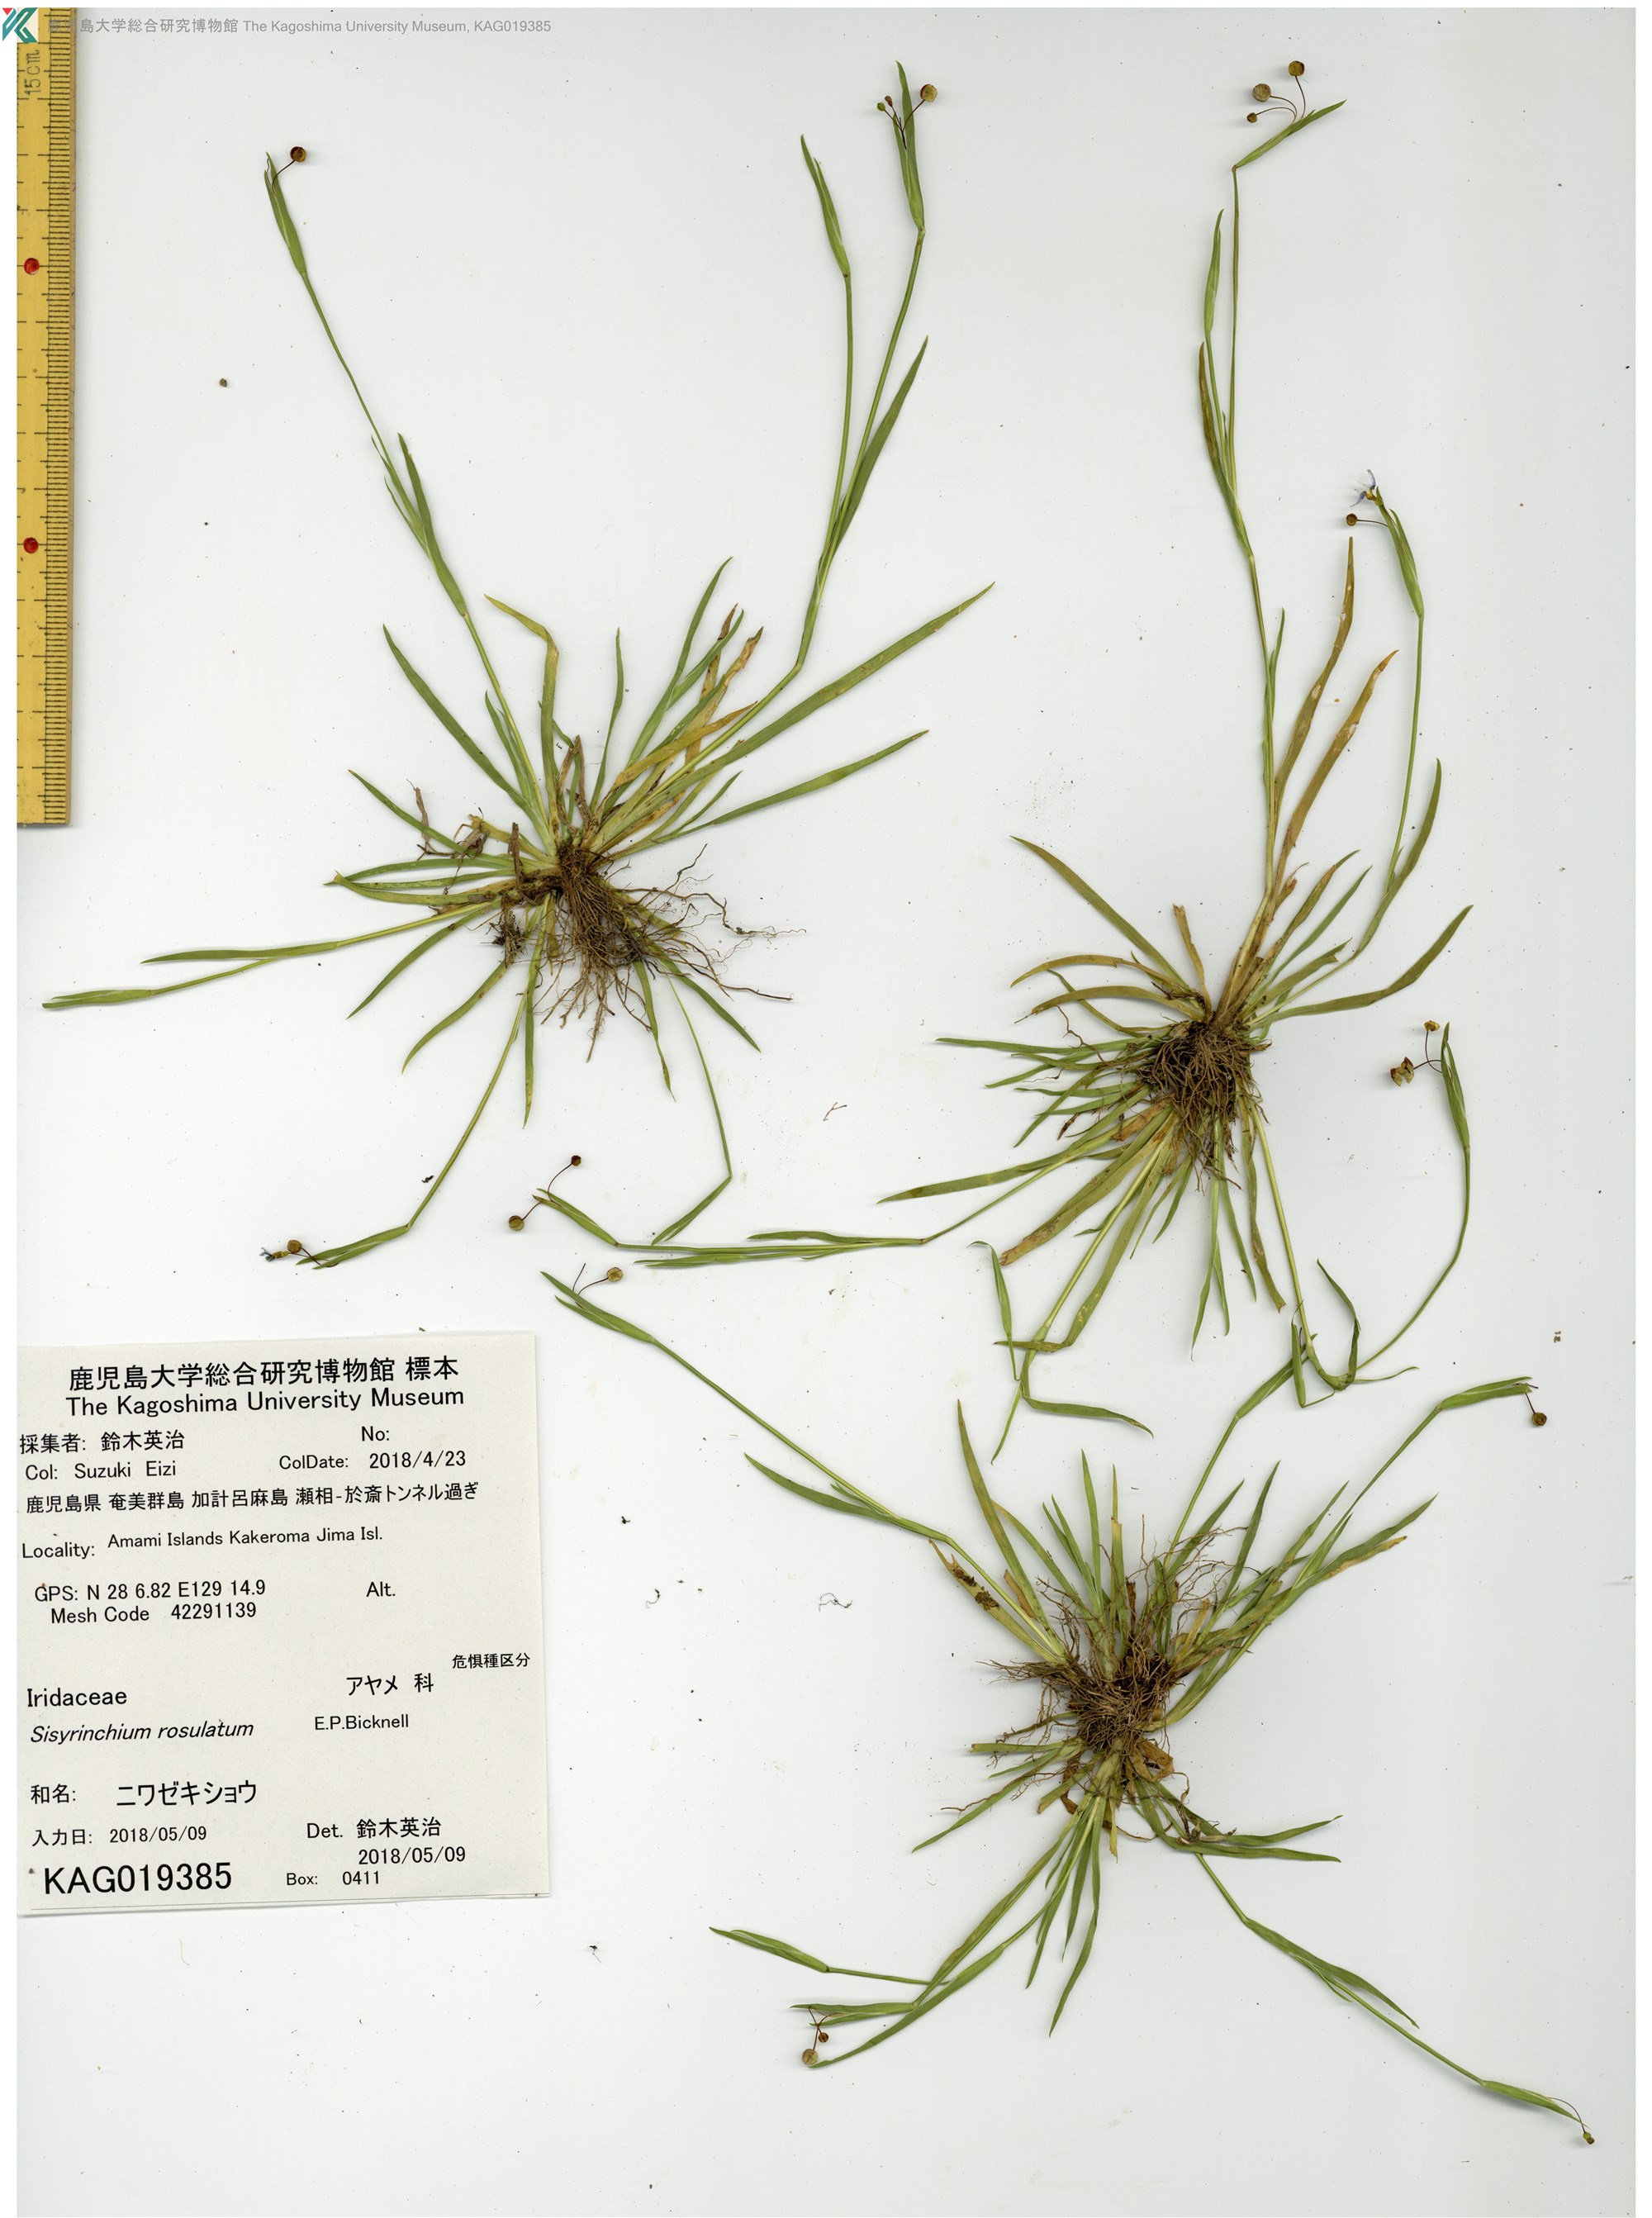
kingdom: Plantae
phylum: Tracheophyta
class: Liliopsida
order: Asparagales
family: Iridaceae
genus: Sisyrinchium
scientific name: Sisyrinchium rosulatum
